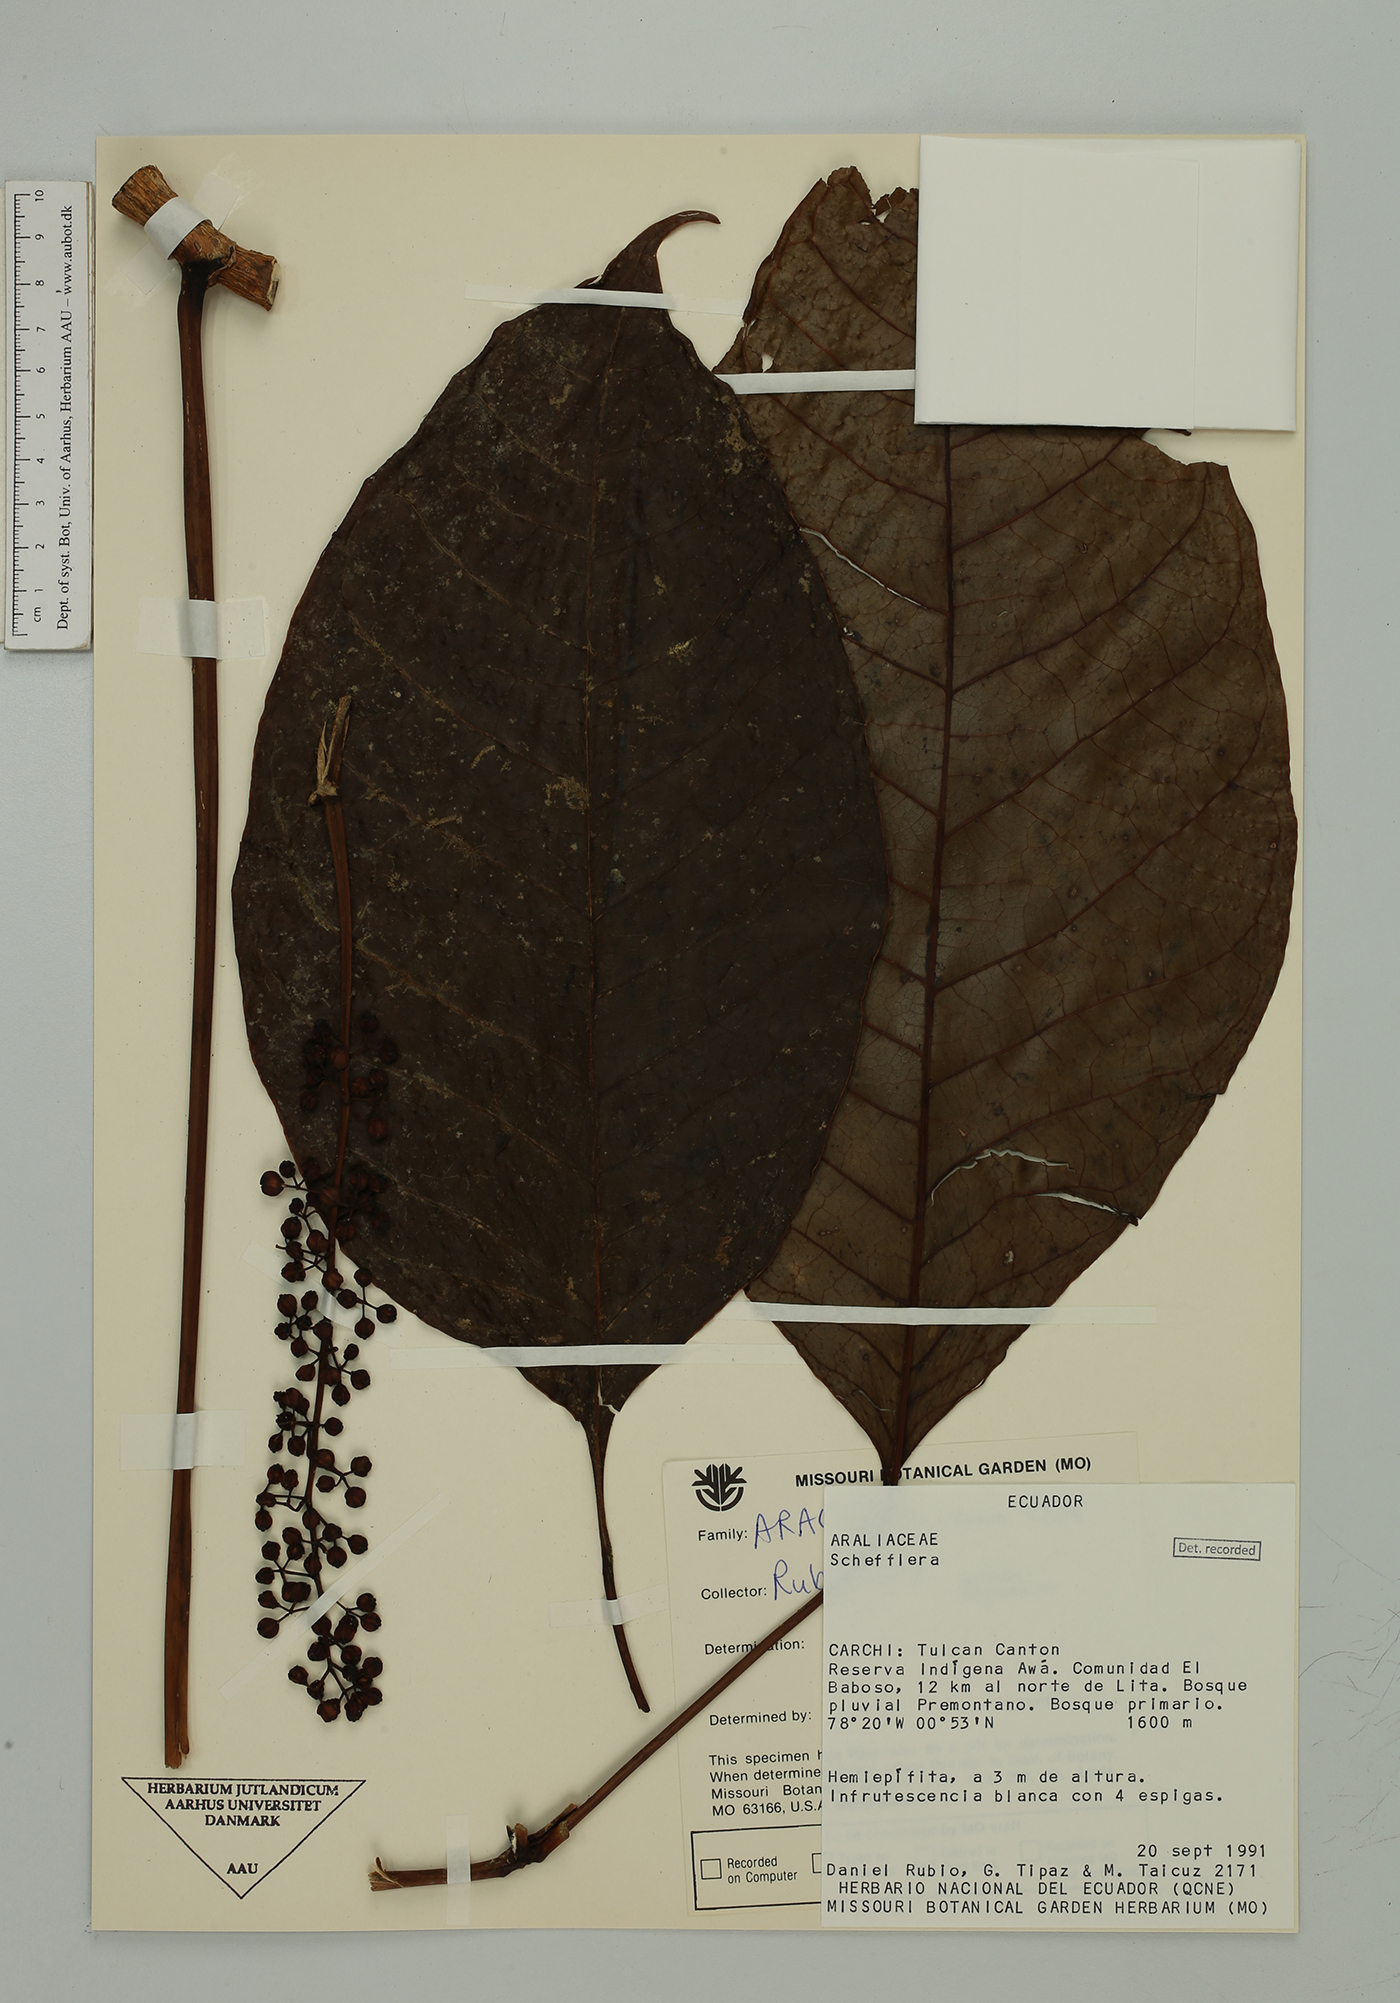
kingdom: Plantae
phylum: Tracheophyta
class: Magnoliopsida
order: Apiales
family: Araliaceae
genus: Sciodaphyllum
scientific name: Sciodaphyllum
